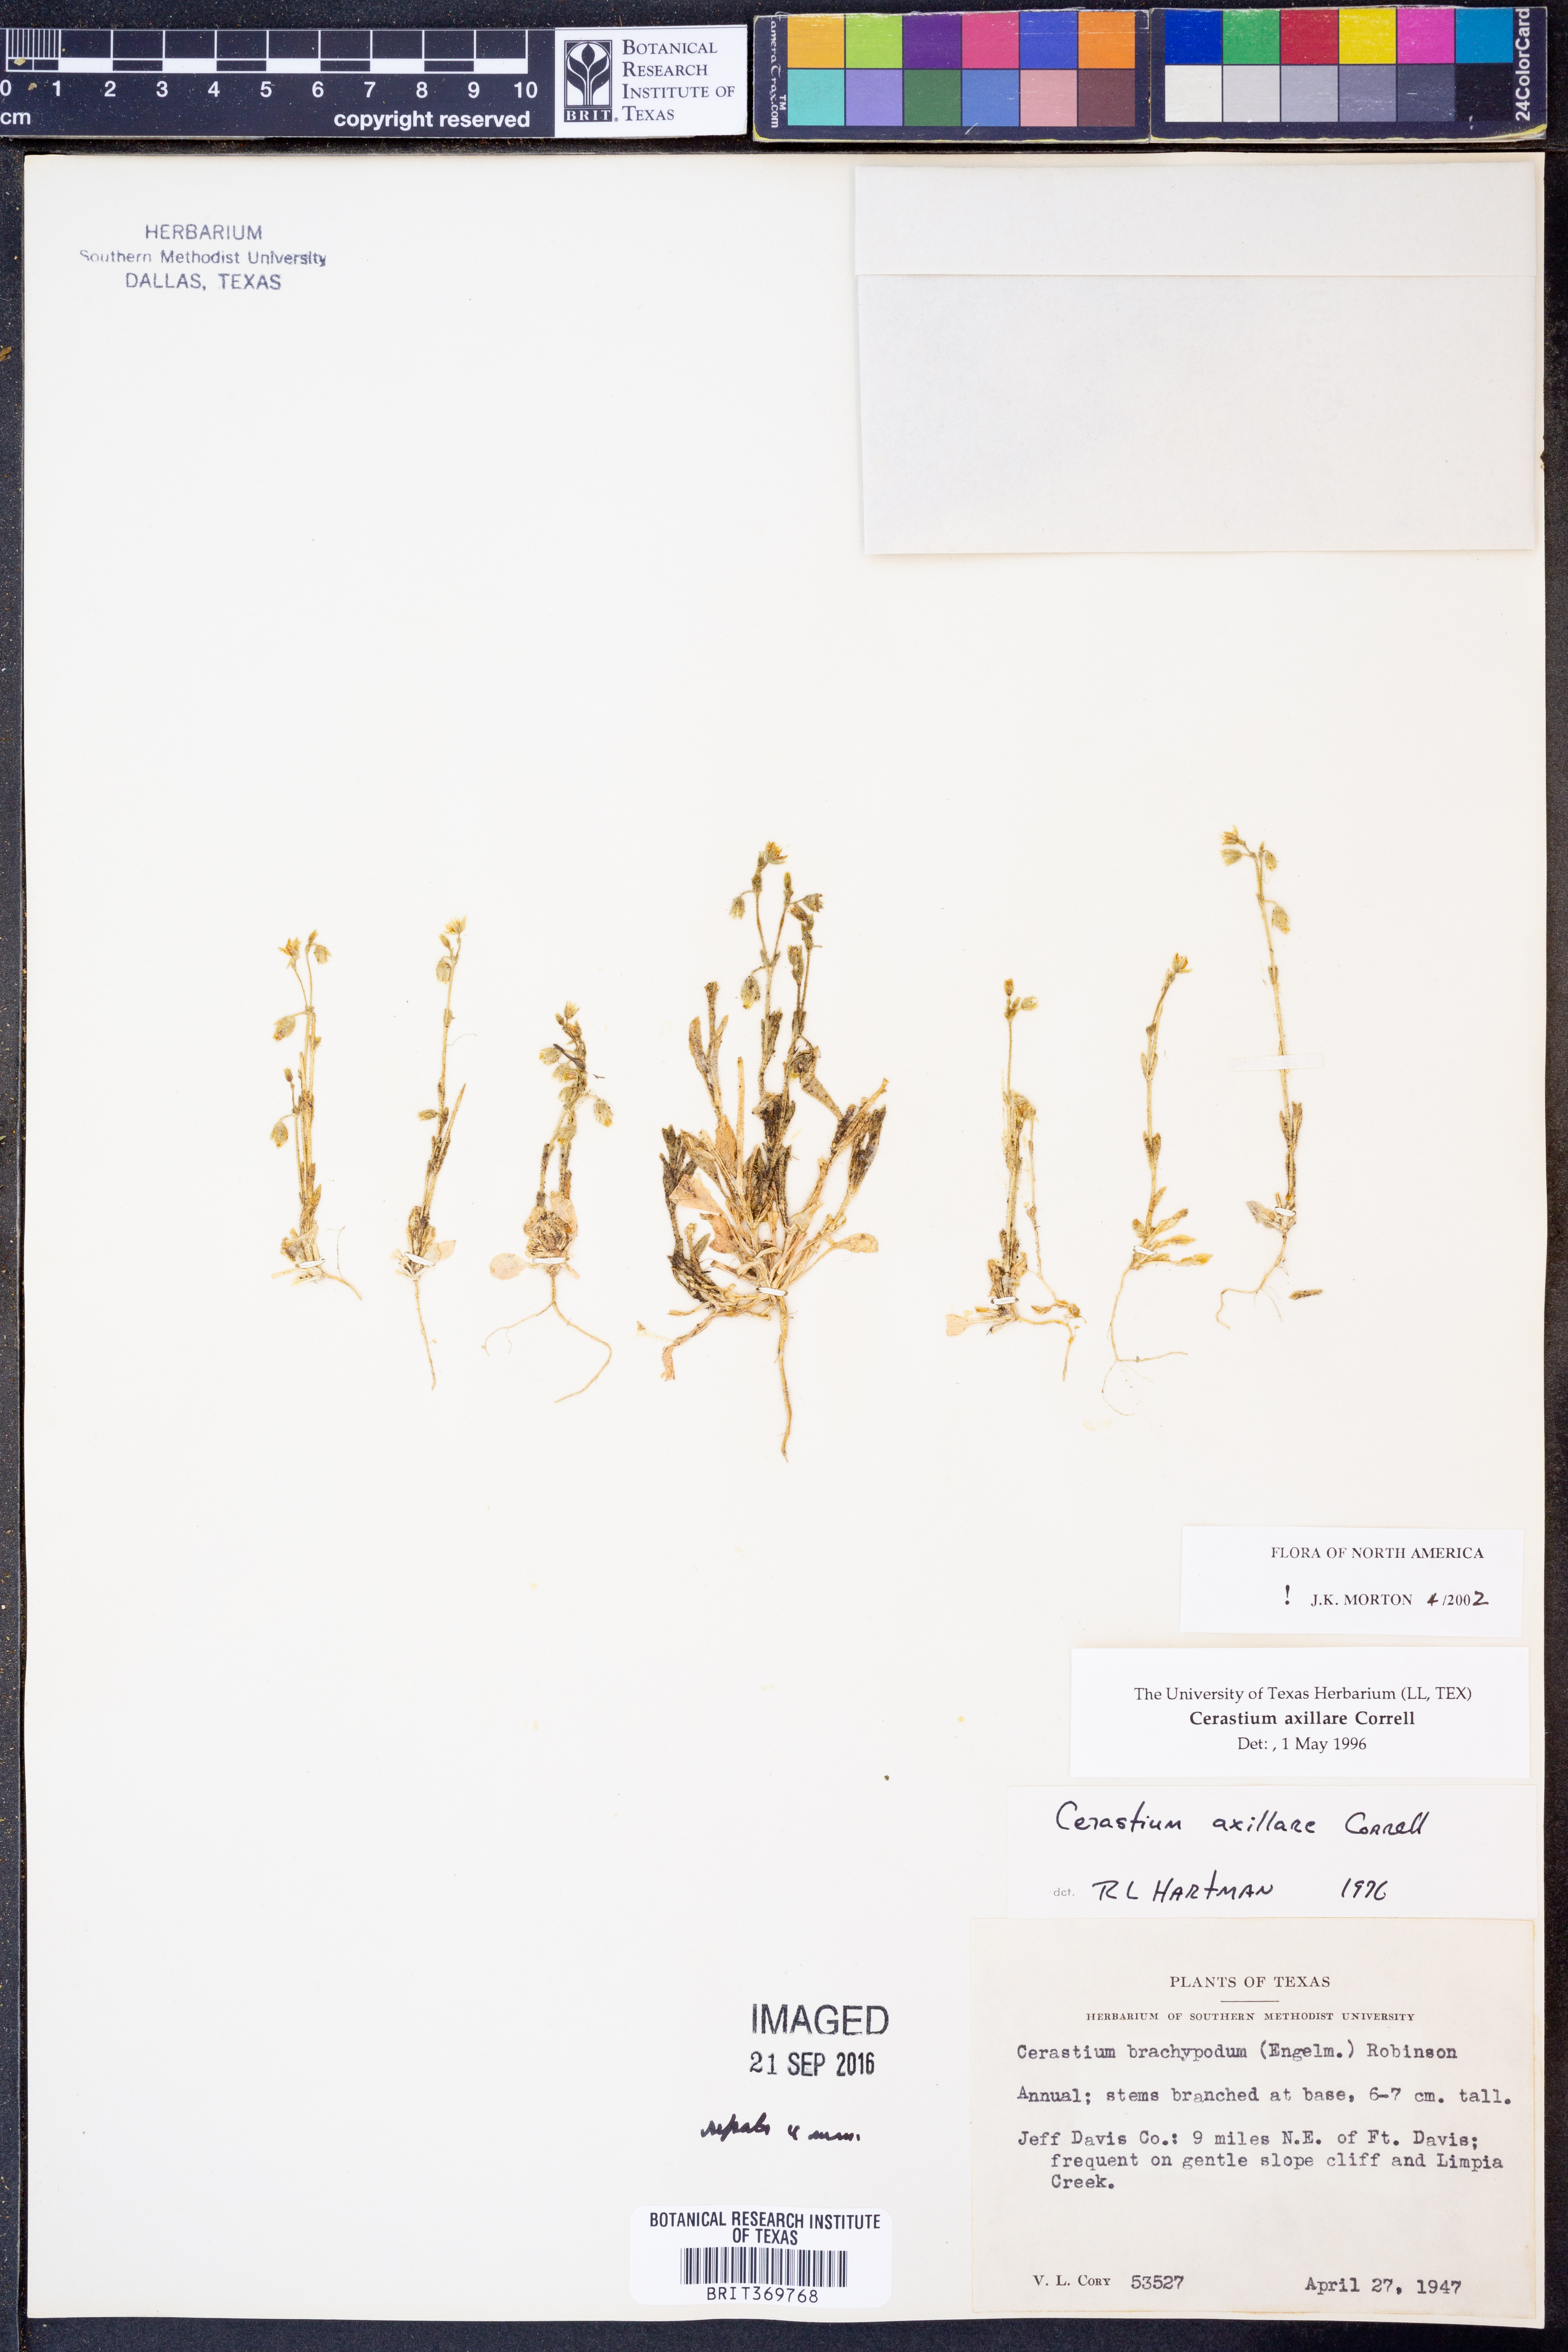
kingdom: Plantae
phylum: Tracheophyta
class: Magnoliopsida
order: Caryophyllales
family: Caryophyllaceae
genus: Cerastium
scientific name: Cerastium axillare
